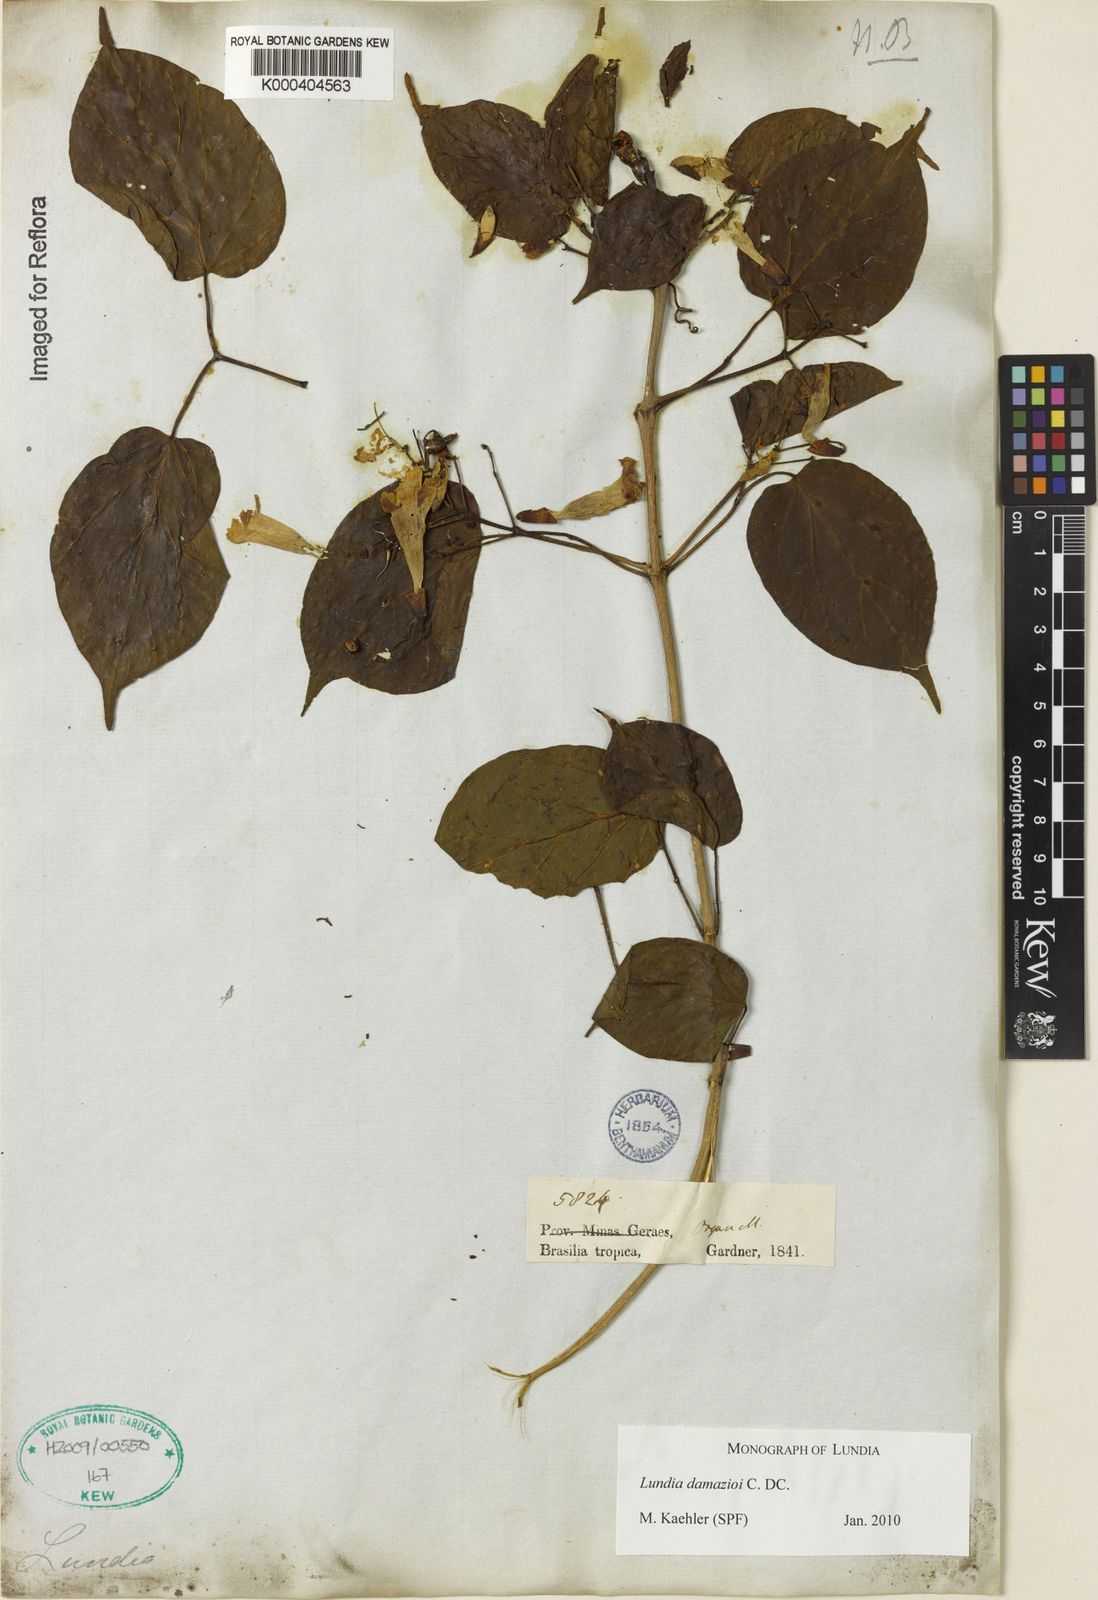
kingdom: Plantae
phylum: Tracheophyta
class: Magnoliopsida
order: Lamiales
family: Bignoniaceae
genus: Lundia
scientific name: Lundia
